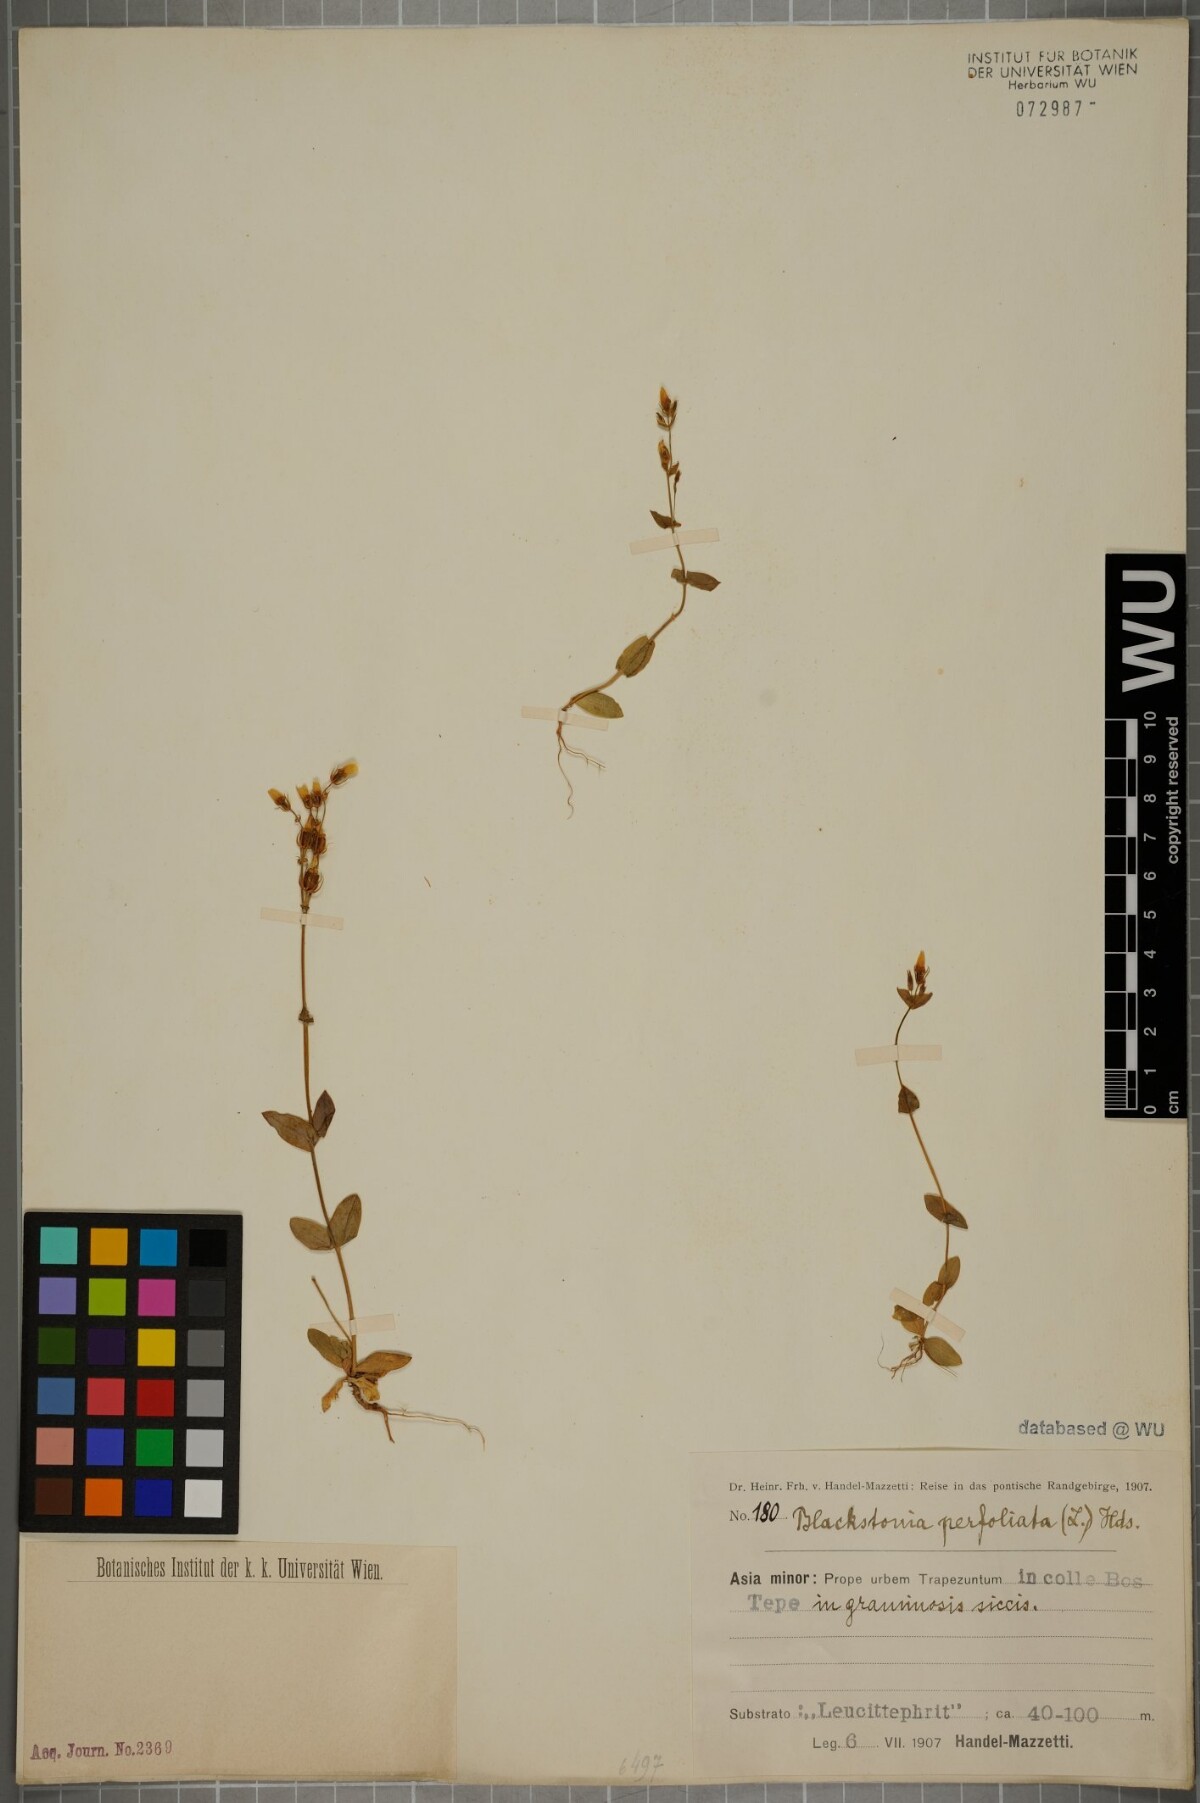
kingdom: Plantae
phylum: Tracheophyta
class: Magnoliopsida
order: Gentianales
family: Gentianaceae
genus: Blackstonia
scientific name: Blackstonia perfoliata
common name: Yellow-wort
